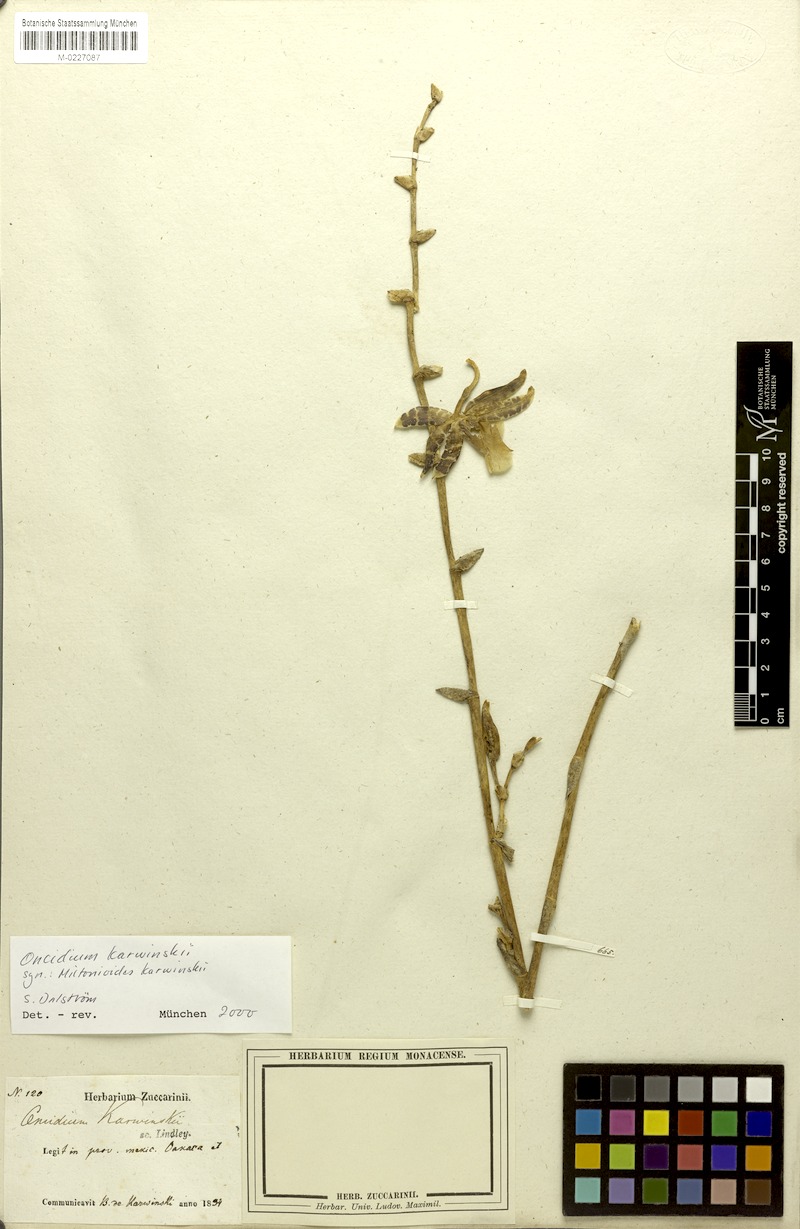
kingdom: Plantae
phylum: Tracheophyta
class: Liliopsida
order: Asparagales
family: Orchidaceae
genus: Oncidium
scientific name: Oncidium karwinskii
